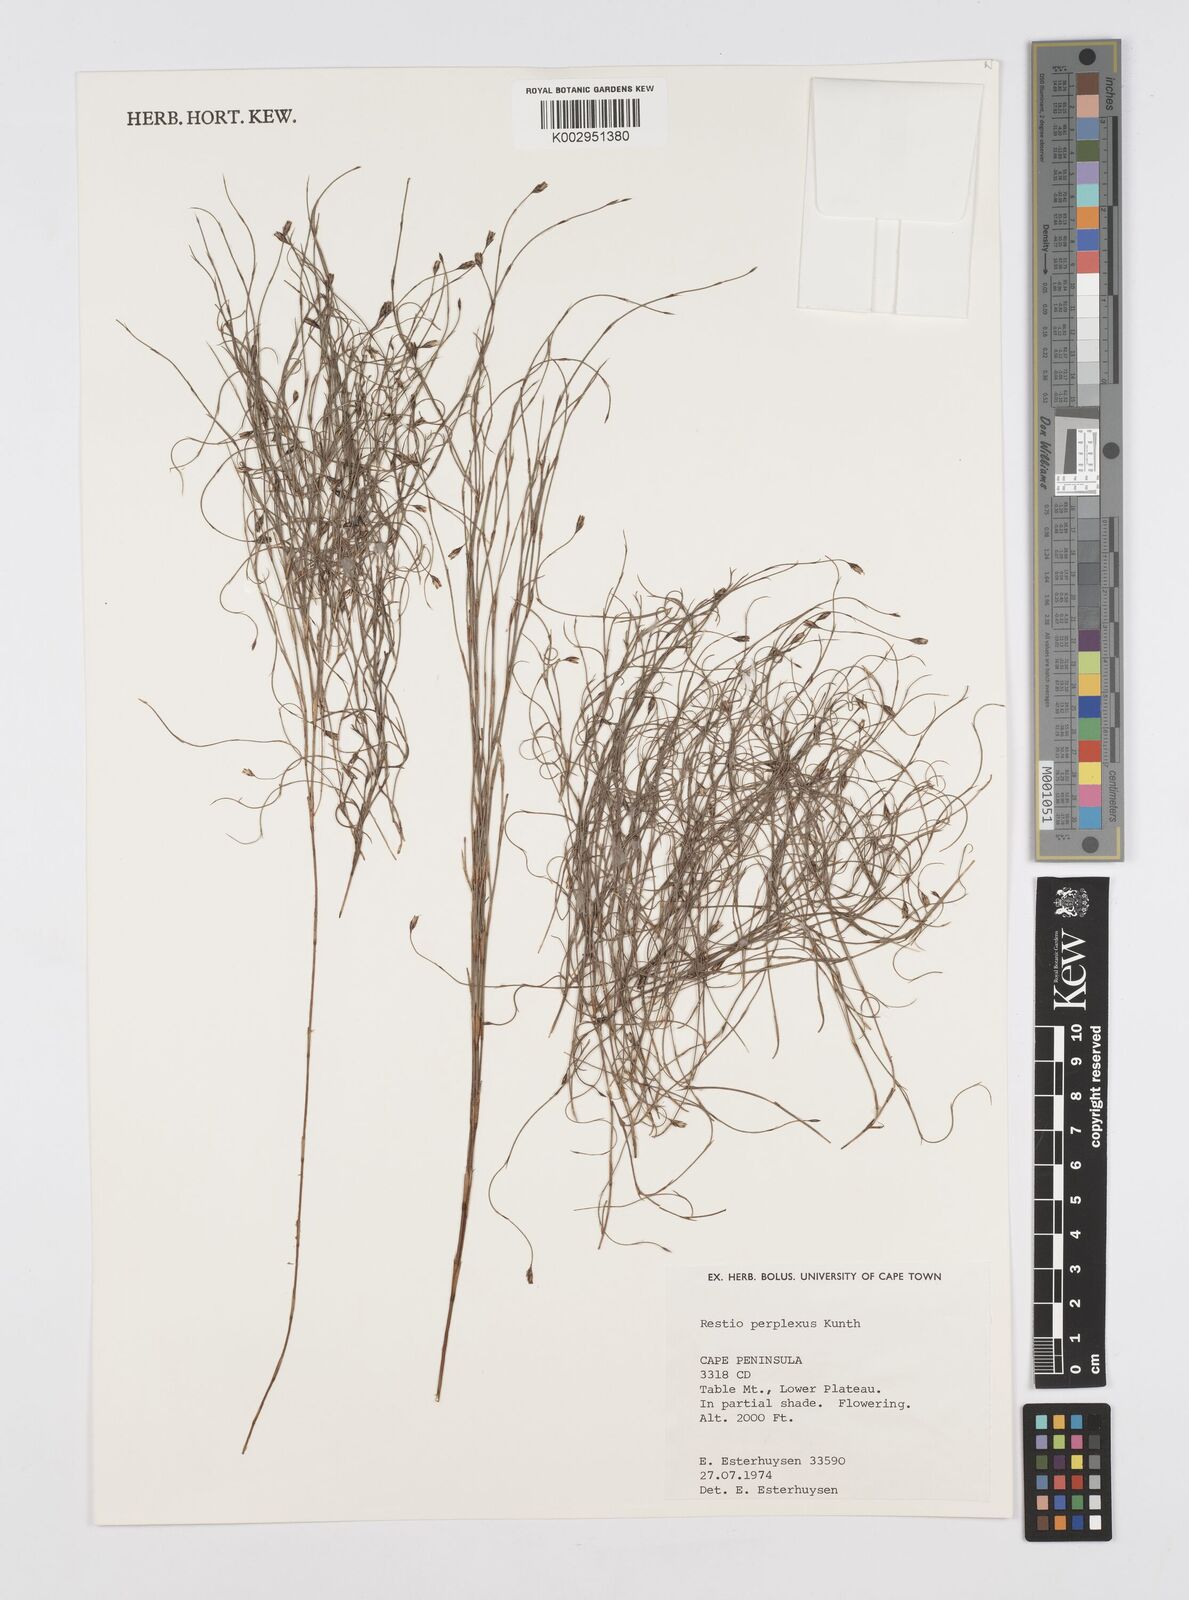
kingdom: Plantae
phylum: Tracheophyta
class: Liliopsida
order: Poales
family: Restionaceae
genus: Restio
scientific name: Restio perplexus
